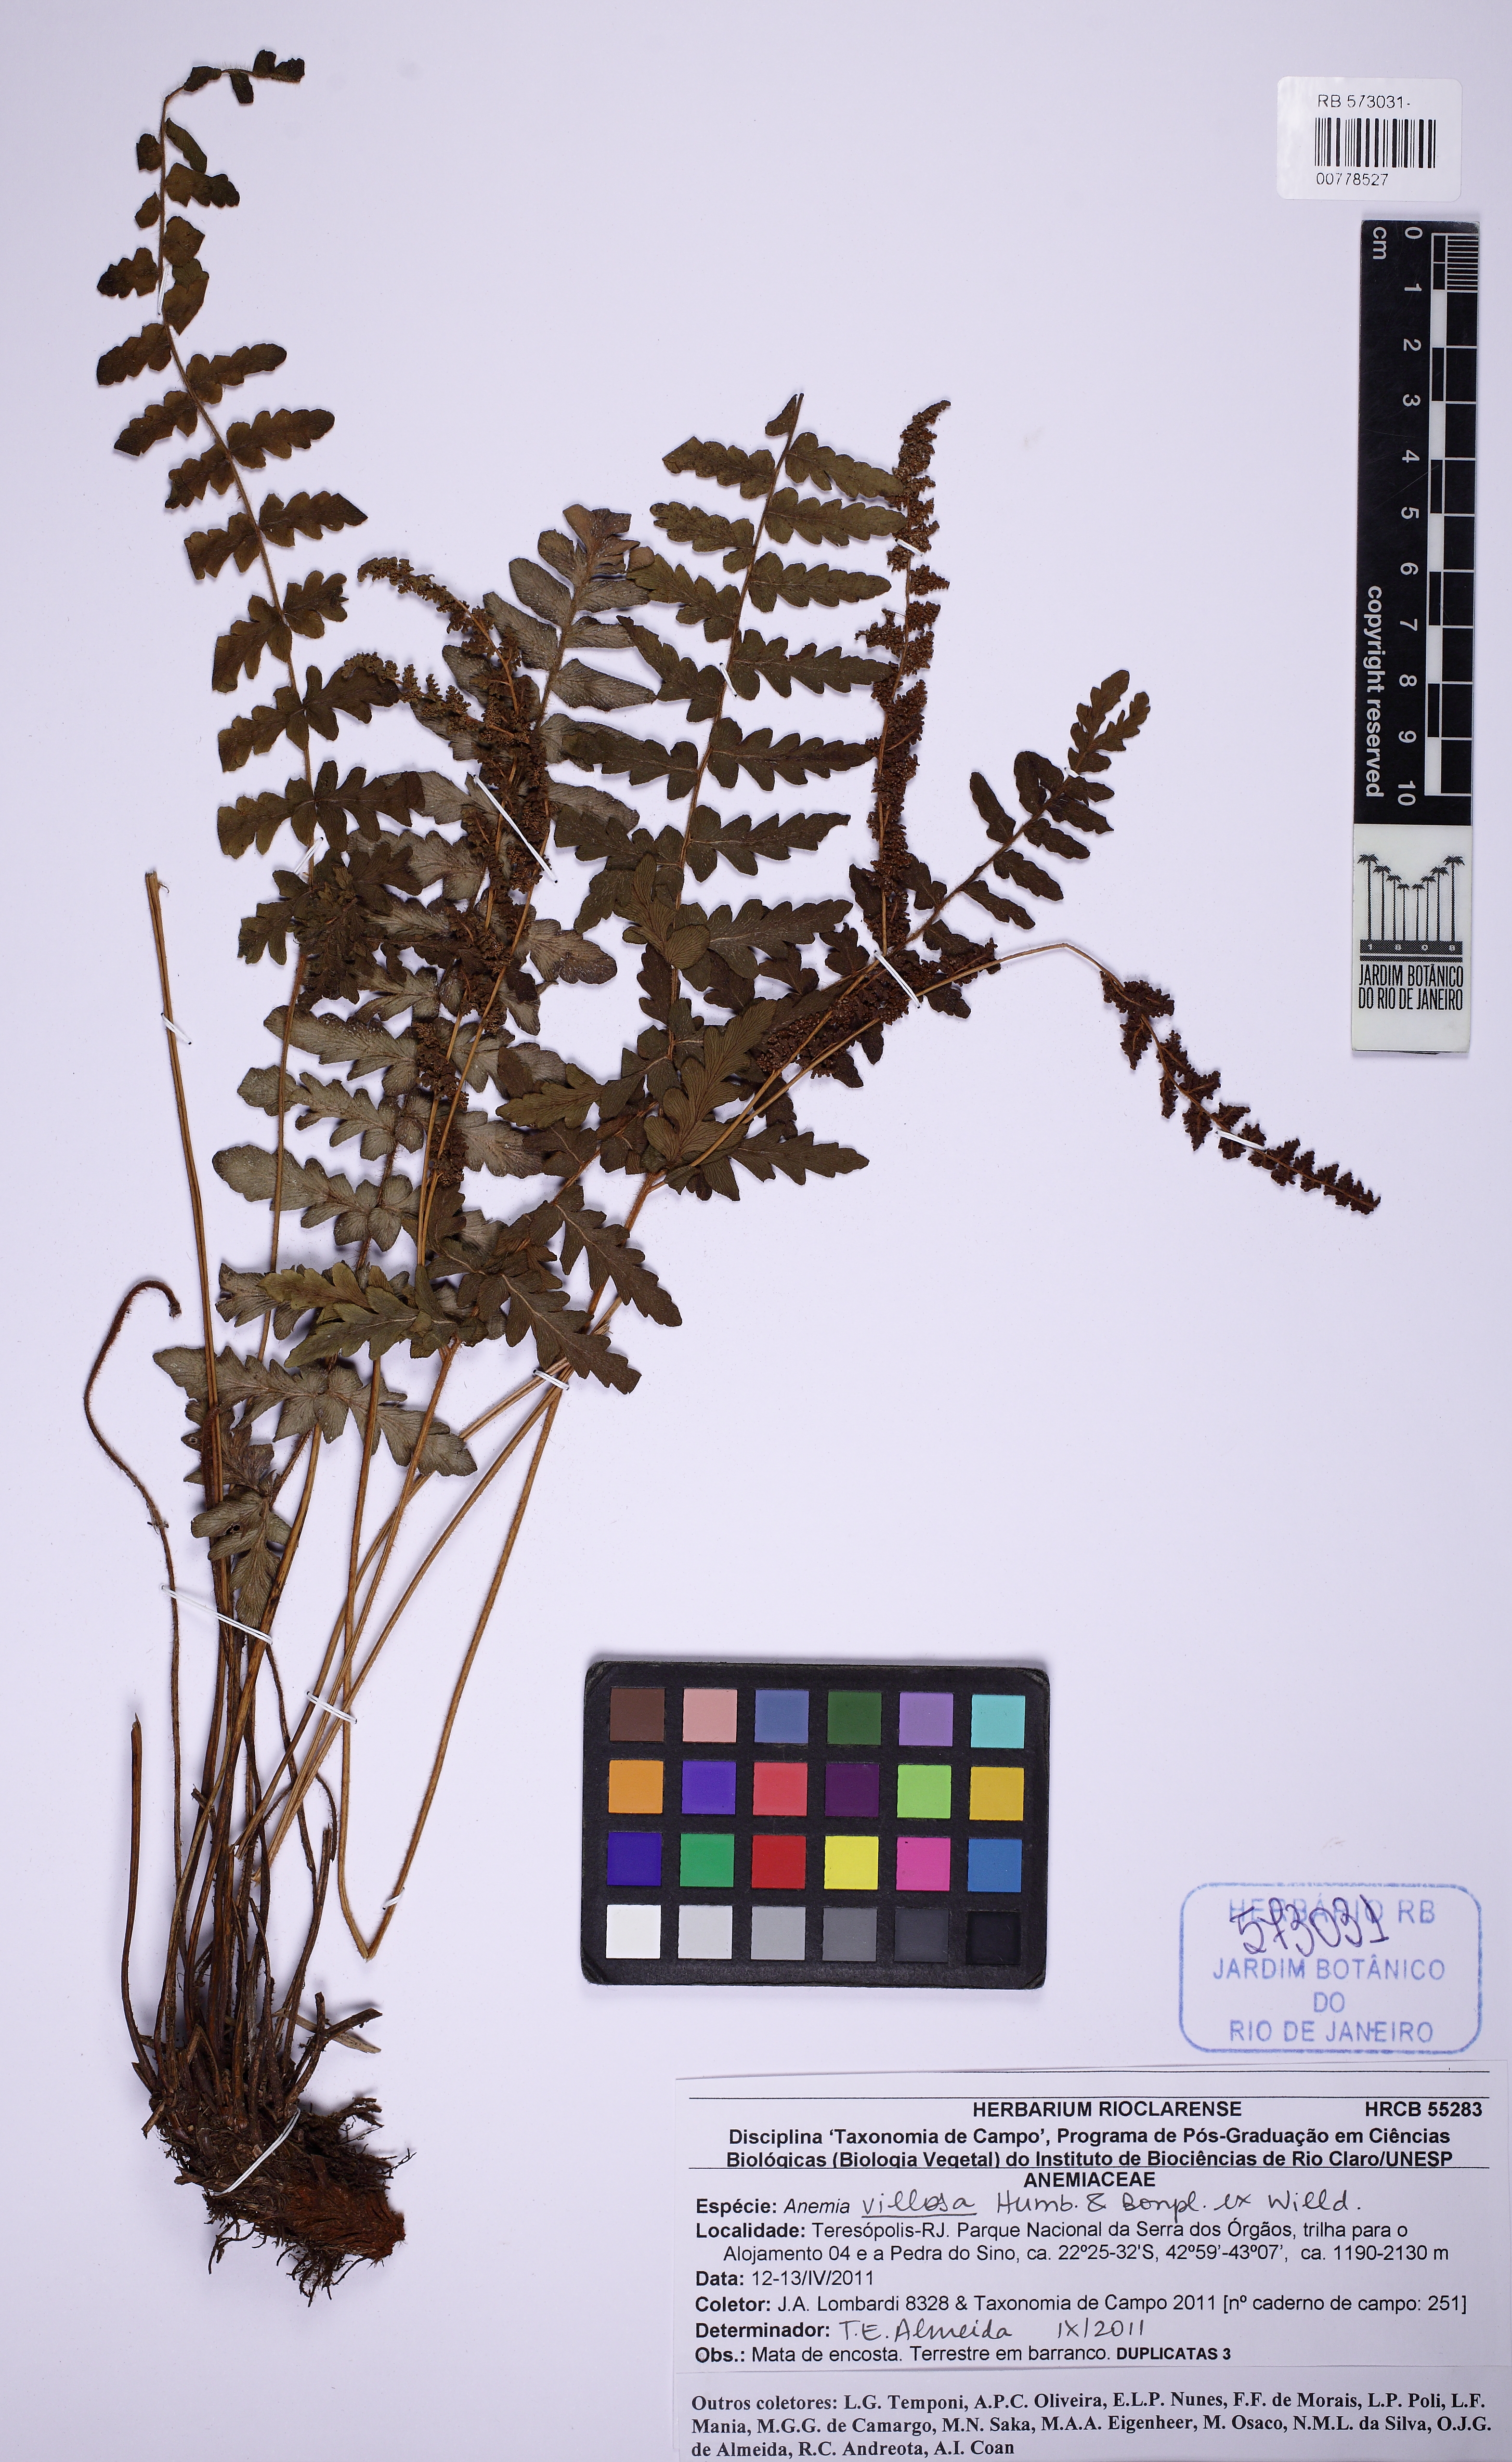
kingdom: Plantae
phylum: Tracheophyta
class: Polypodiopsida
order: Schizaeales
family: Anemiaceae
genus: Anemia
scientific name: Anemia villosa
